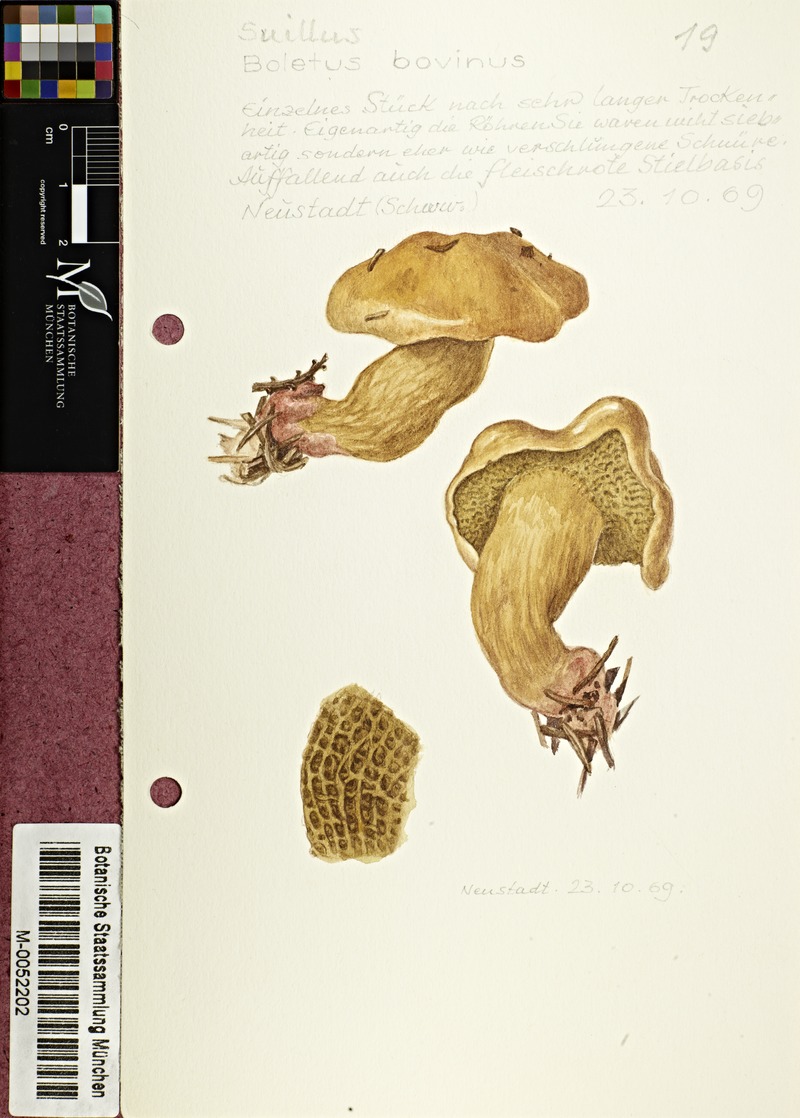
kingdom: Fungi
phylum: Basidiomycota
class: Agaricomycetes
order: Boletales
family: Suillaceae
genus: Suillus
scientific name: Suillus bovinus
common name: Bovine bolete
